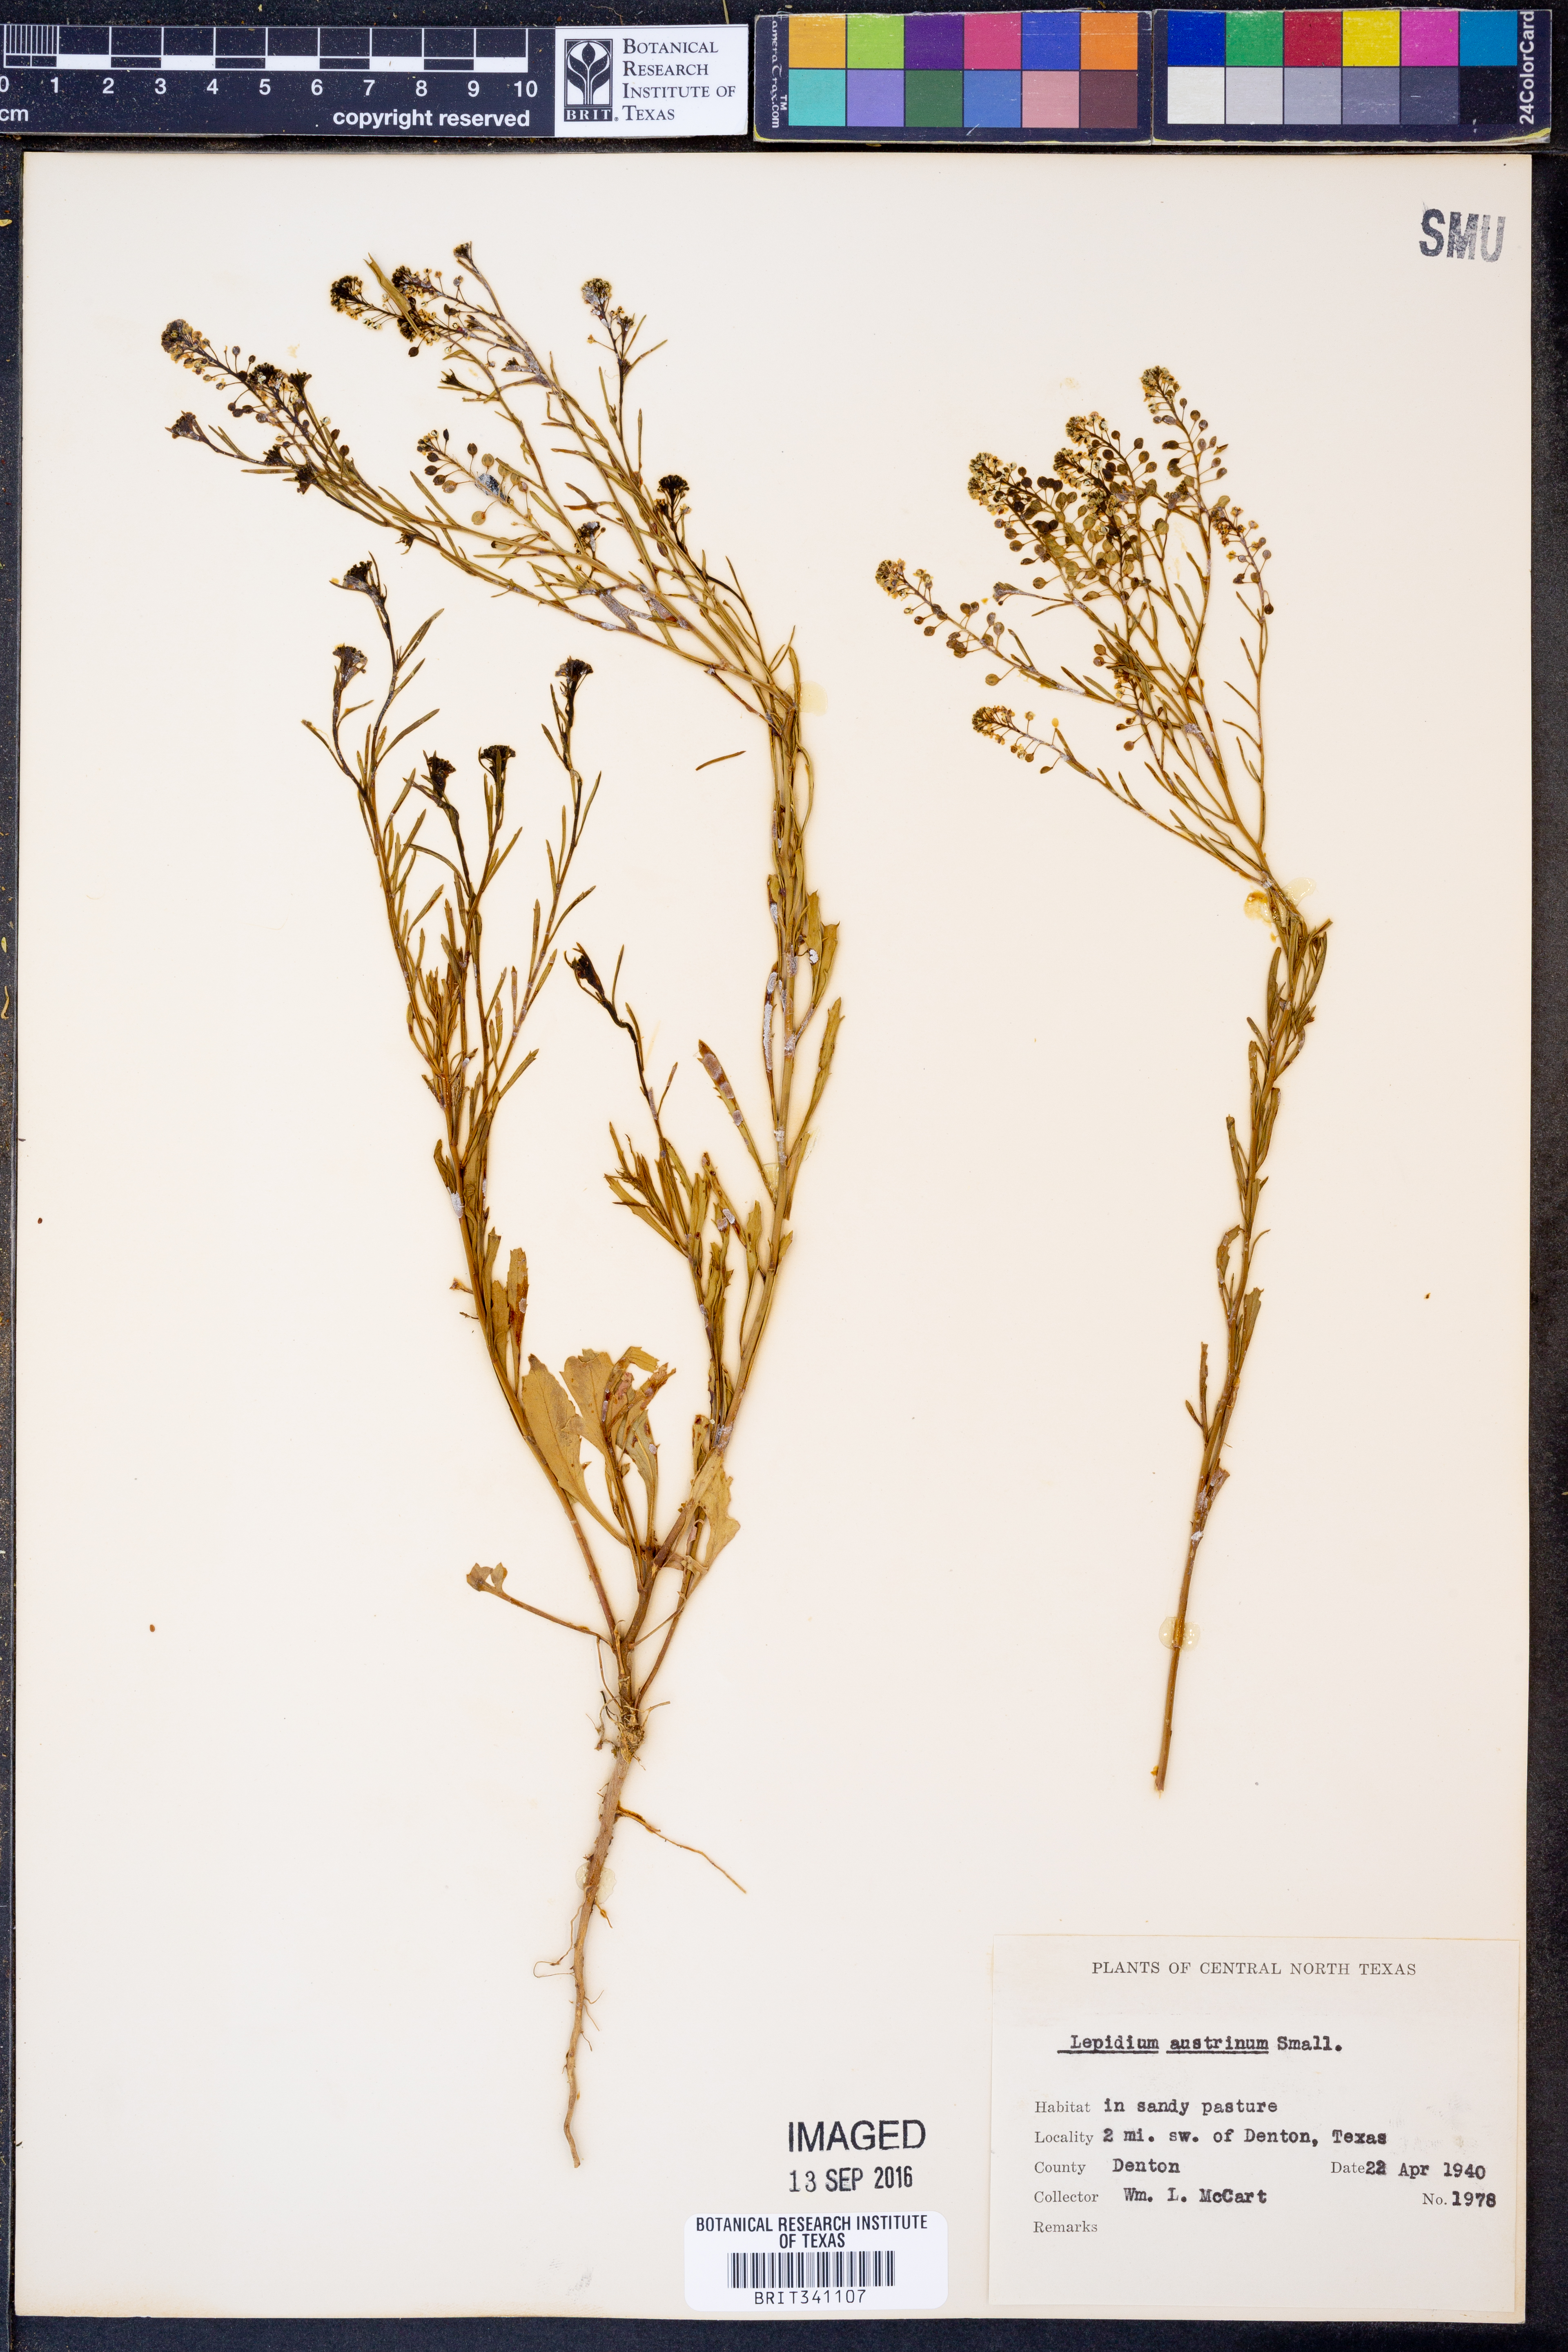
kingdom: Plantae
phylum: Tracheophyta
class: Magnoliopsida
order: Brassicales
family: Brassicaceae
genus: Lepidium
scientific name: Lepidium austrinum
